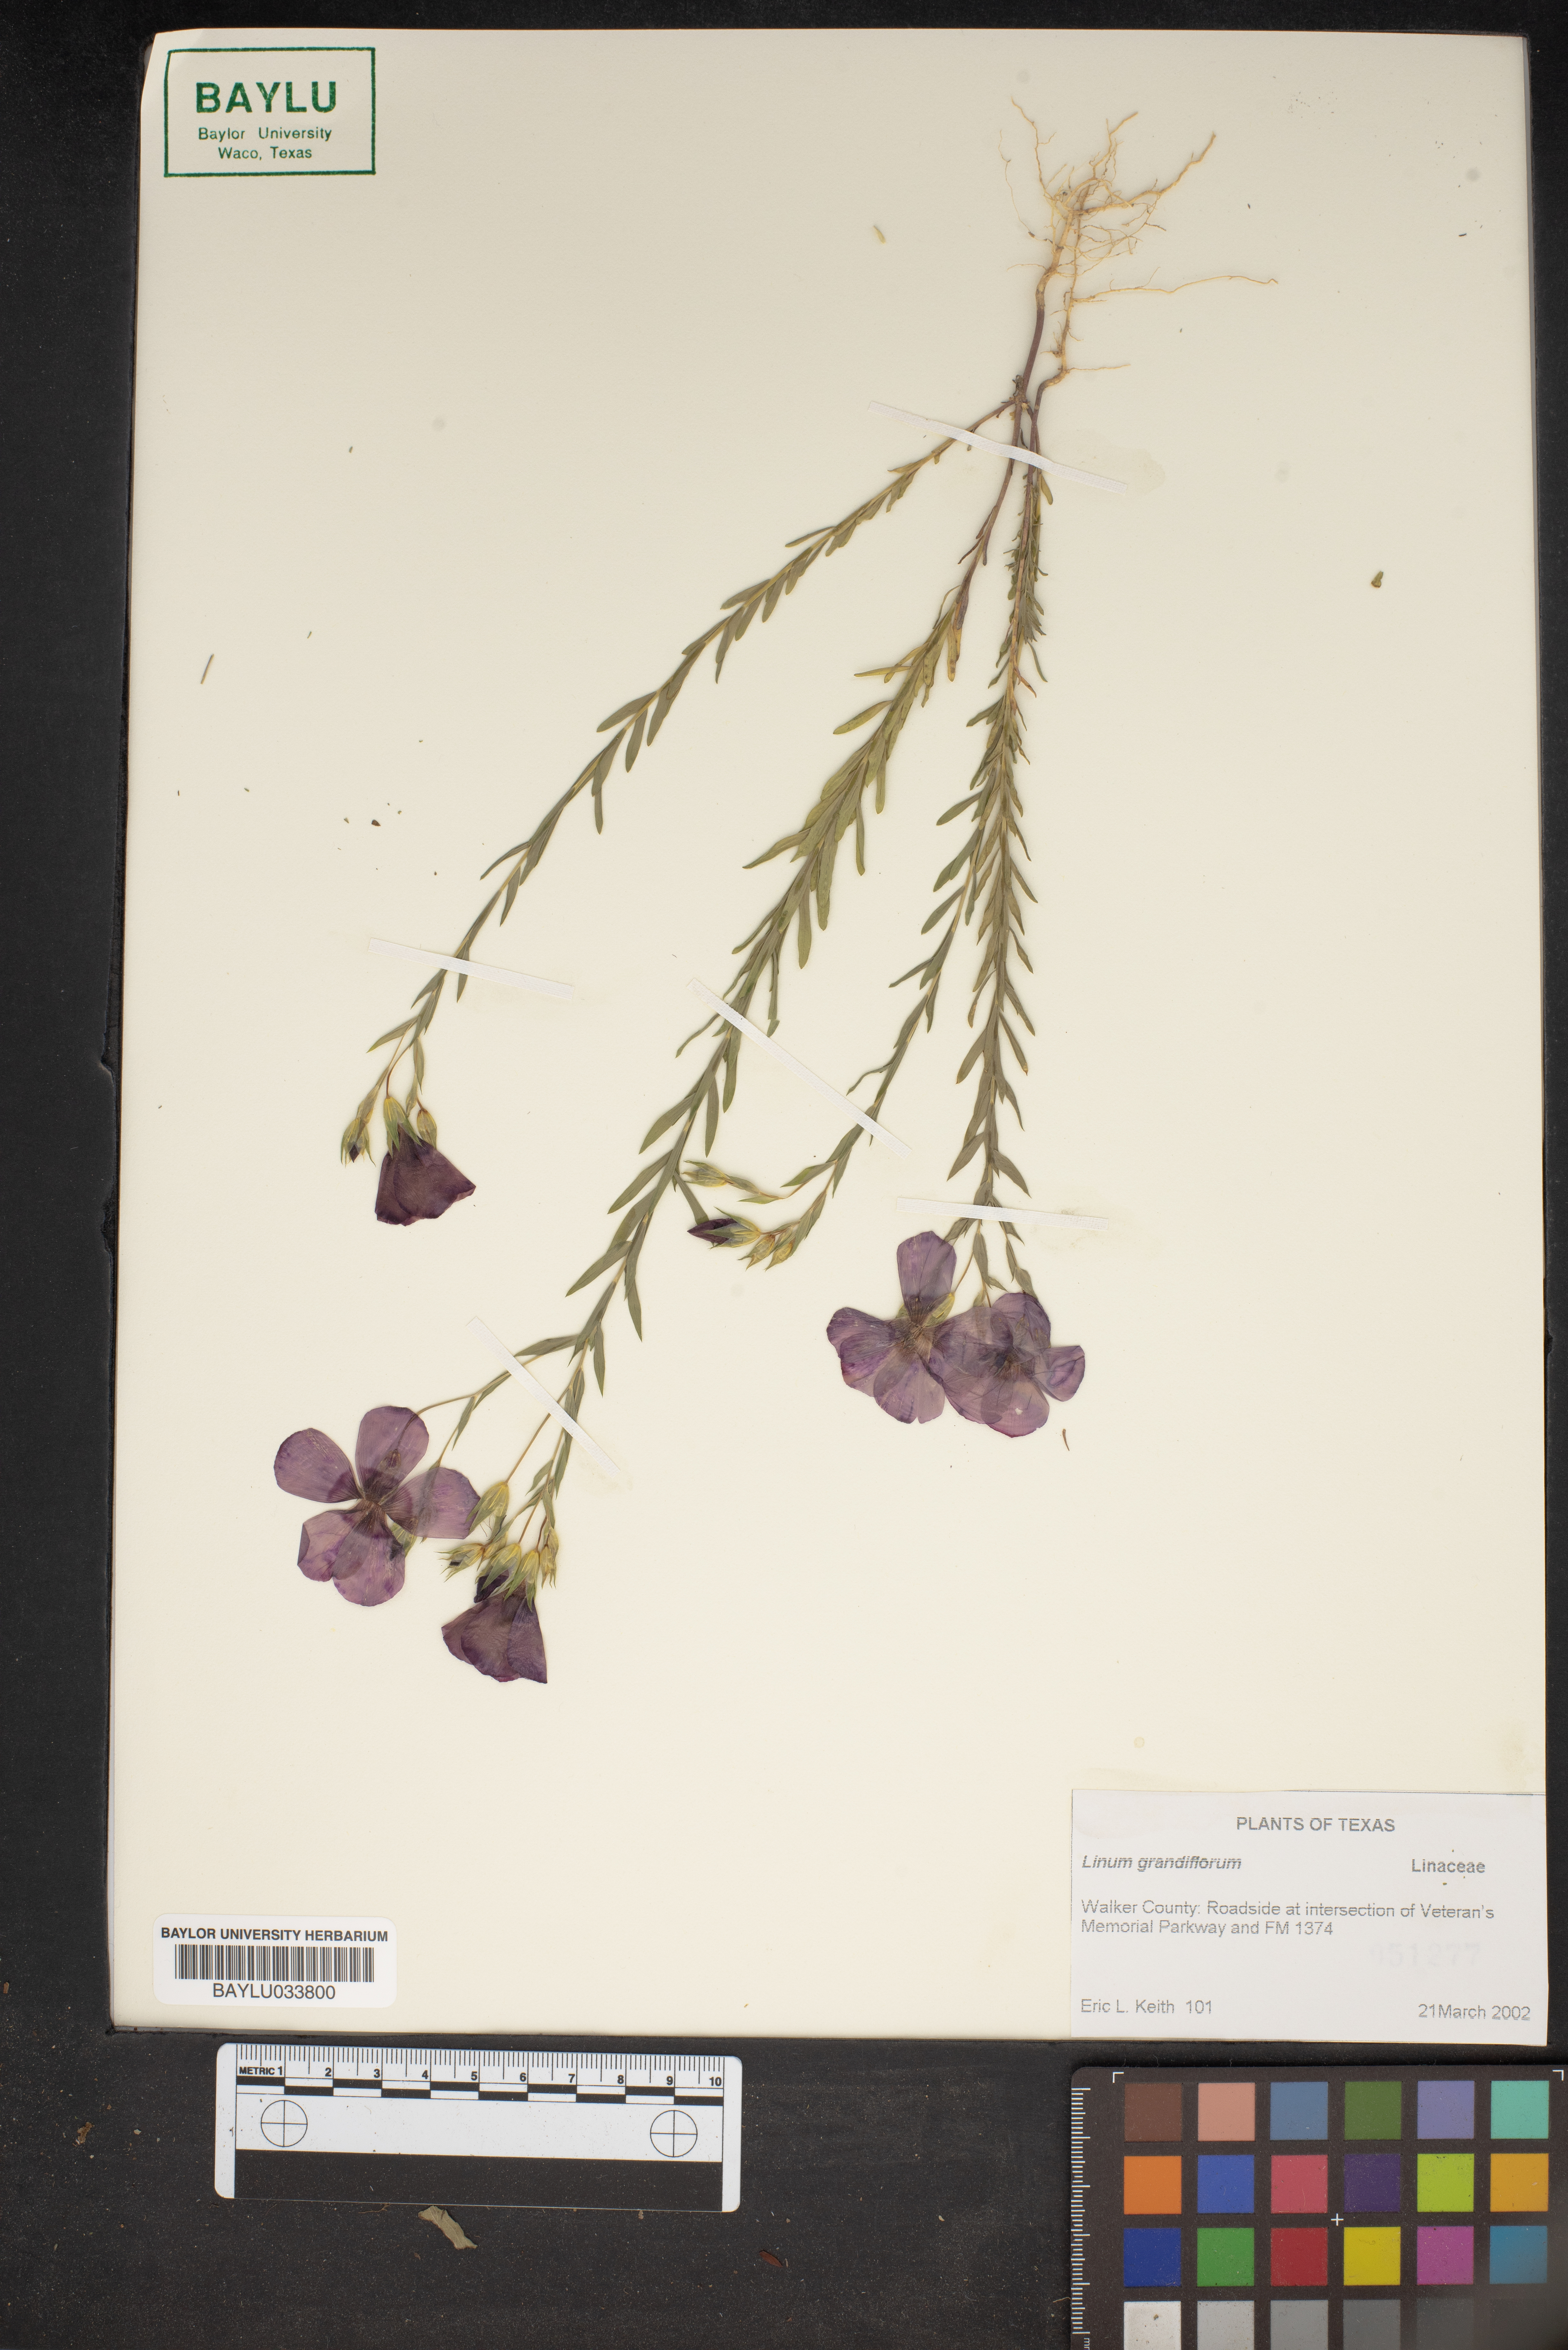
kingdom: Plantae
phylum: Tracheophyta
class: Magnoliopsida
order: Malpighiales
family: Linaceae
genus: Linum
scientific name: Linum grandiflorum
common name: Crimson flax
